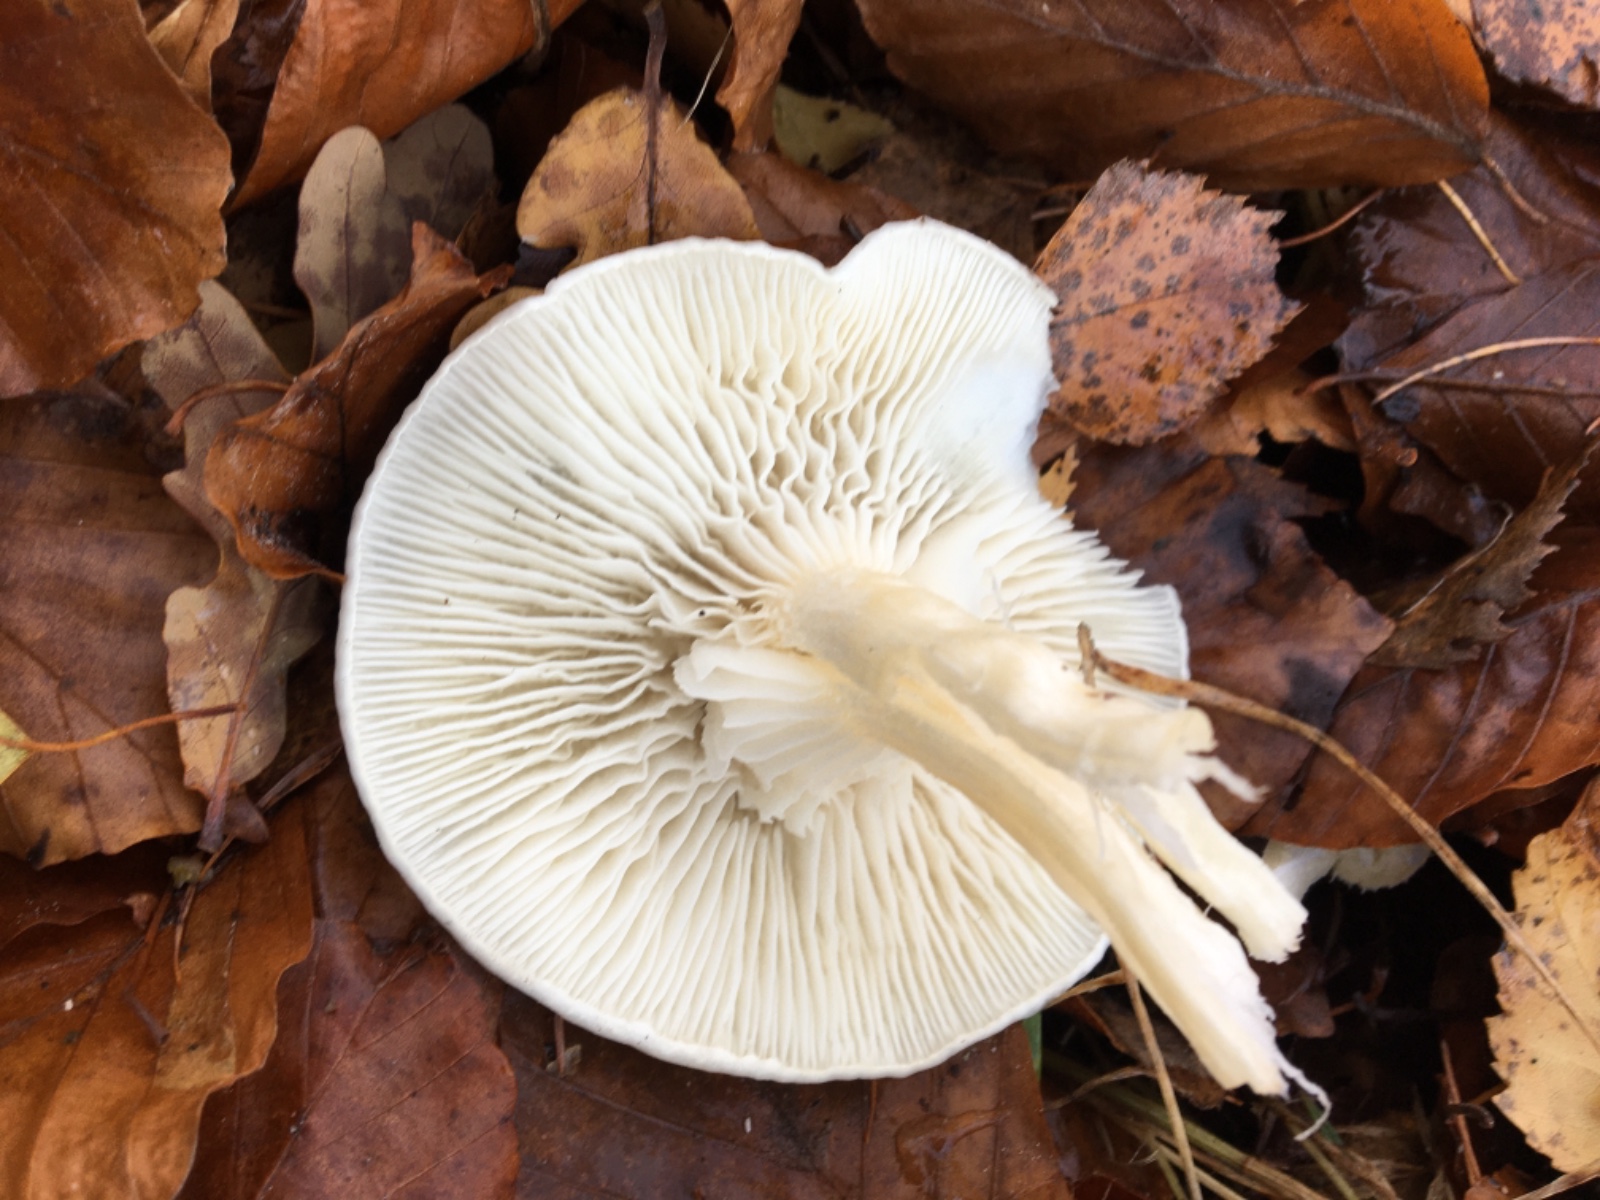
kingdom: Fungi
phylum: Basidiomycota
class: Agaricomycetes
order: Agaricales
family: Hygrophoraceae
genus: Hygrophorus
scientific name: Hygrophorus
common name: sneglehat
